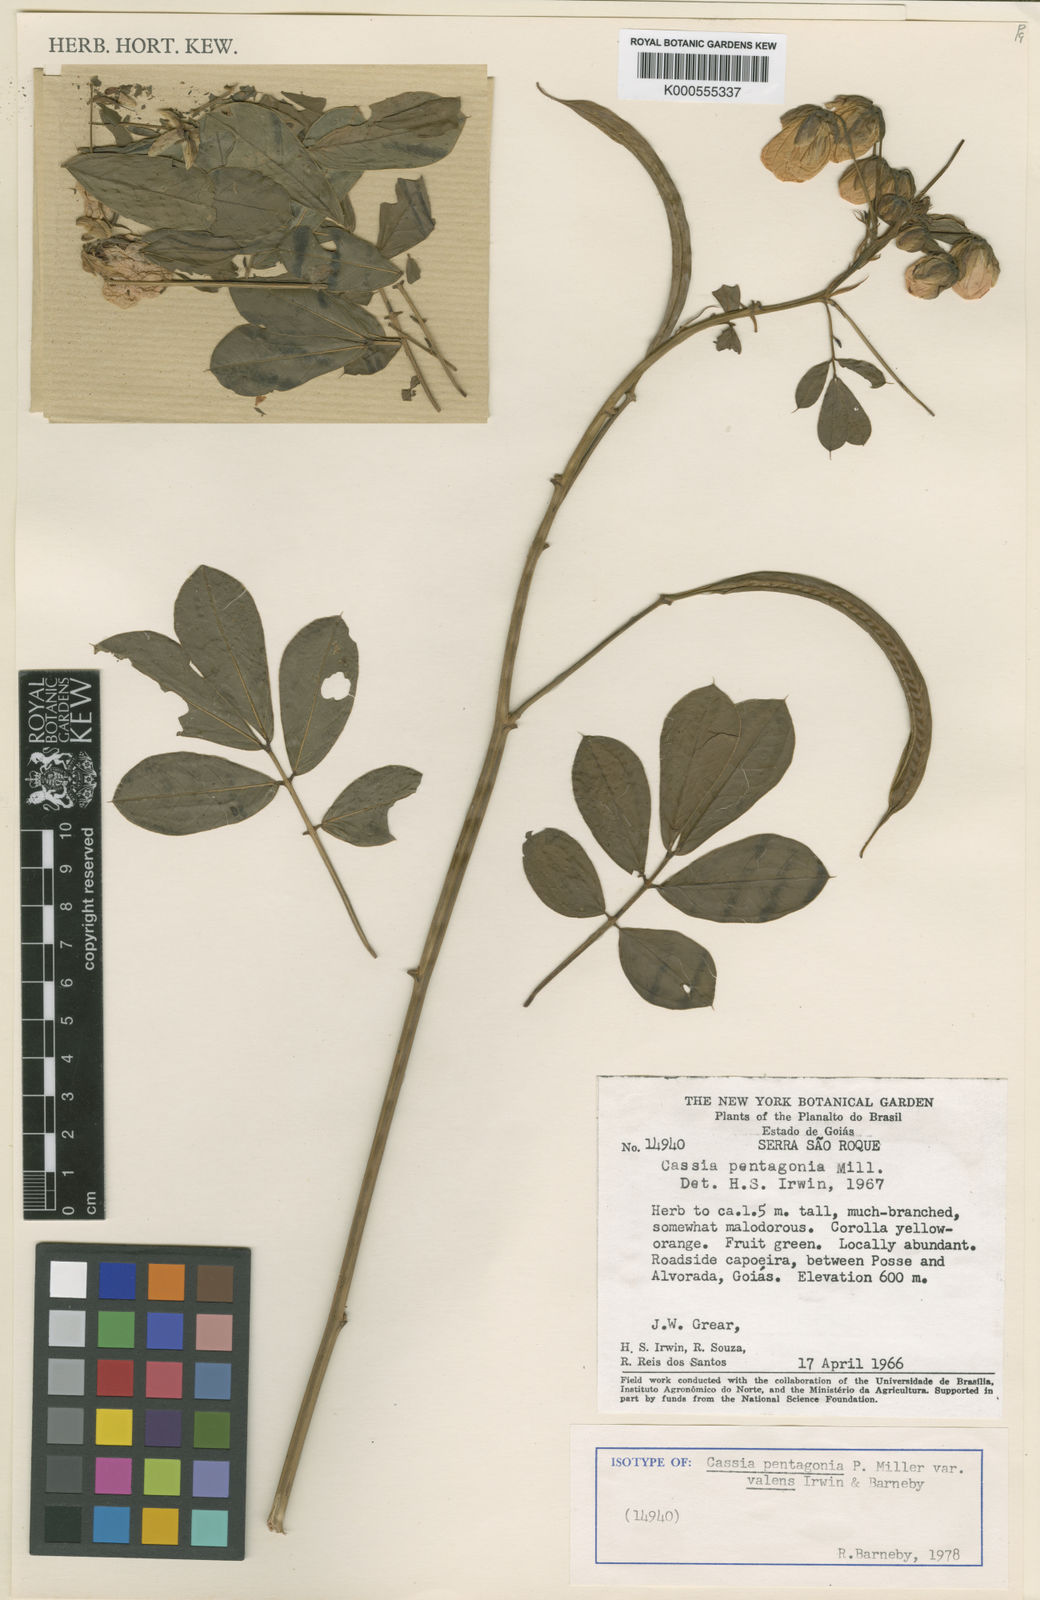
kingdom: Plantae
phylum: Tracheophyta
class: Magnoliopsida
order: Fabales
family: Fabaceae
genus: Senna
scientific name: Senna pentagonia
